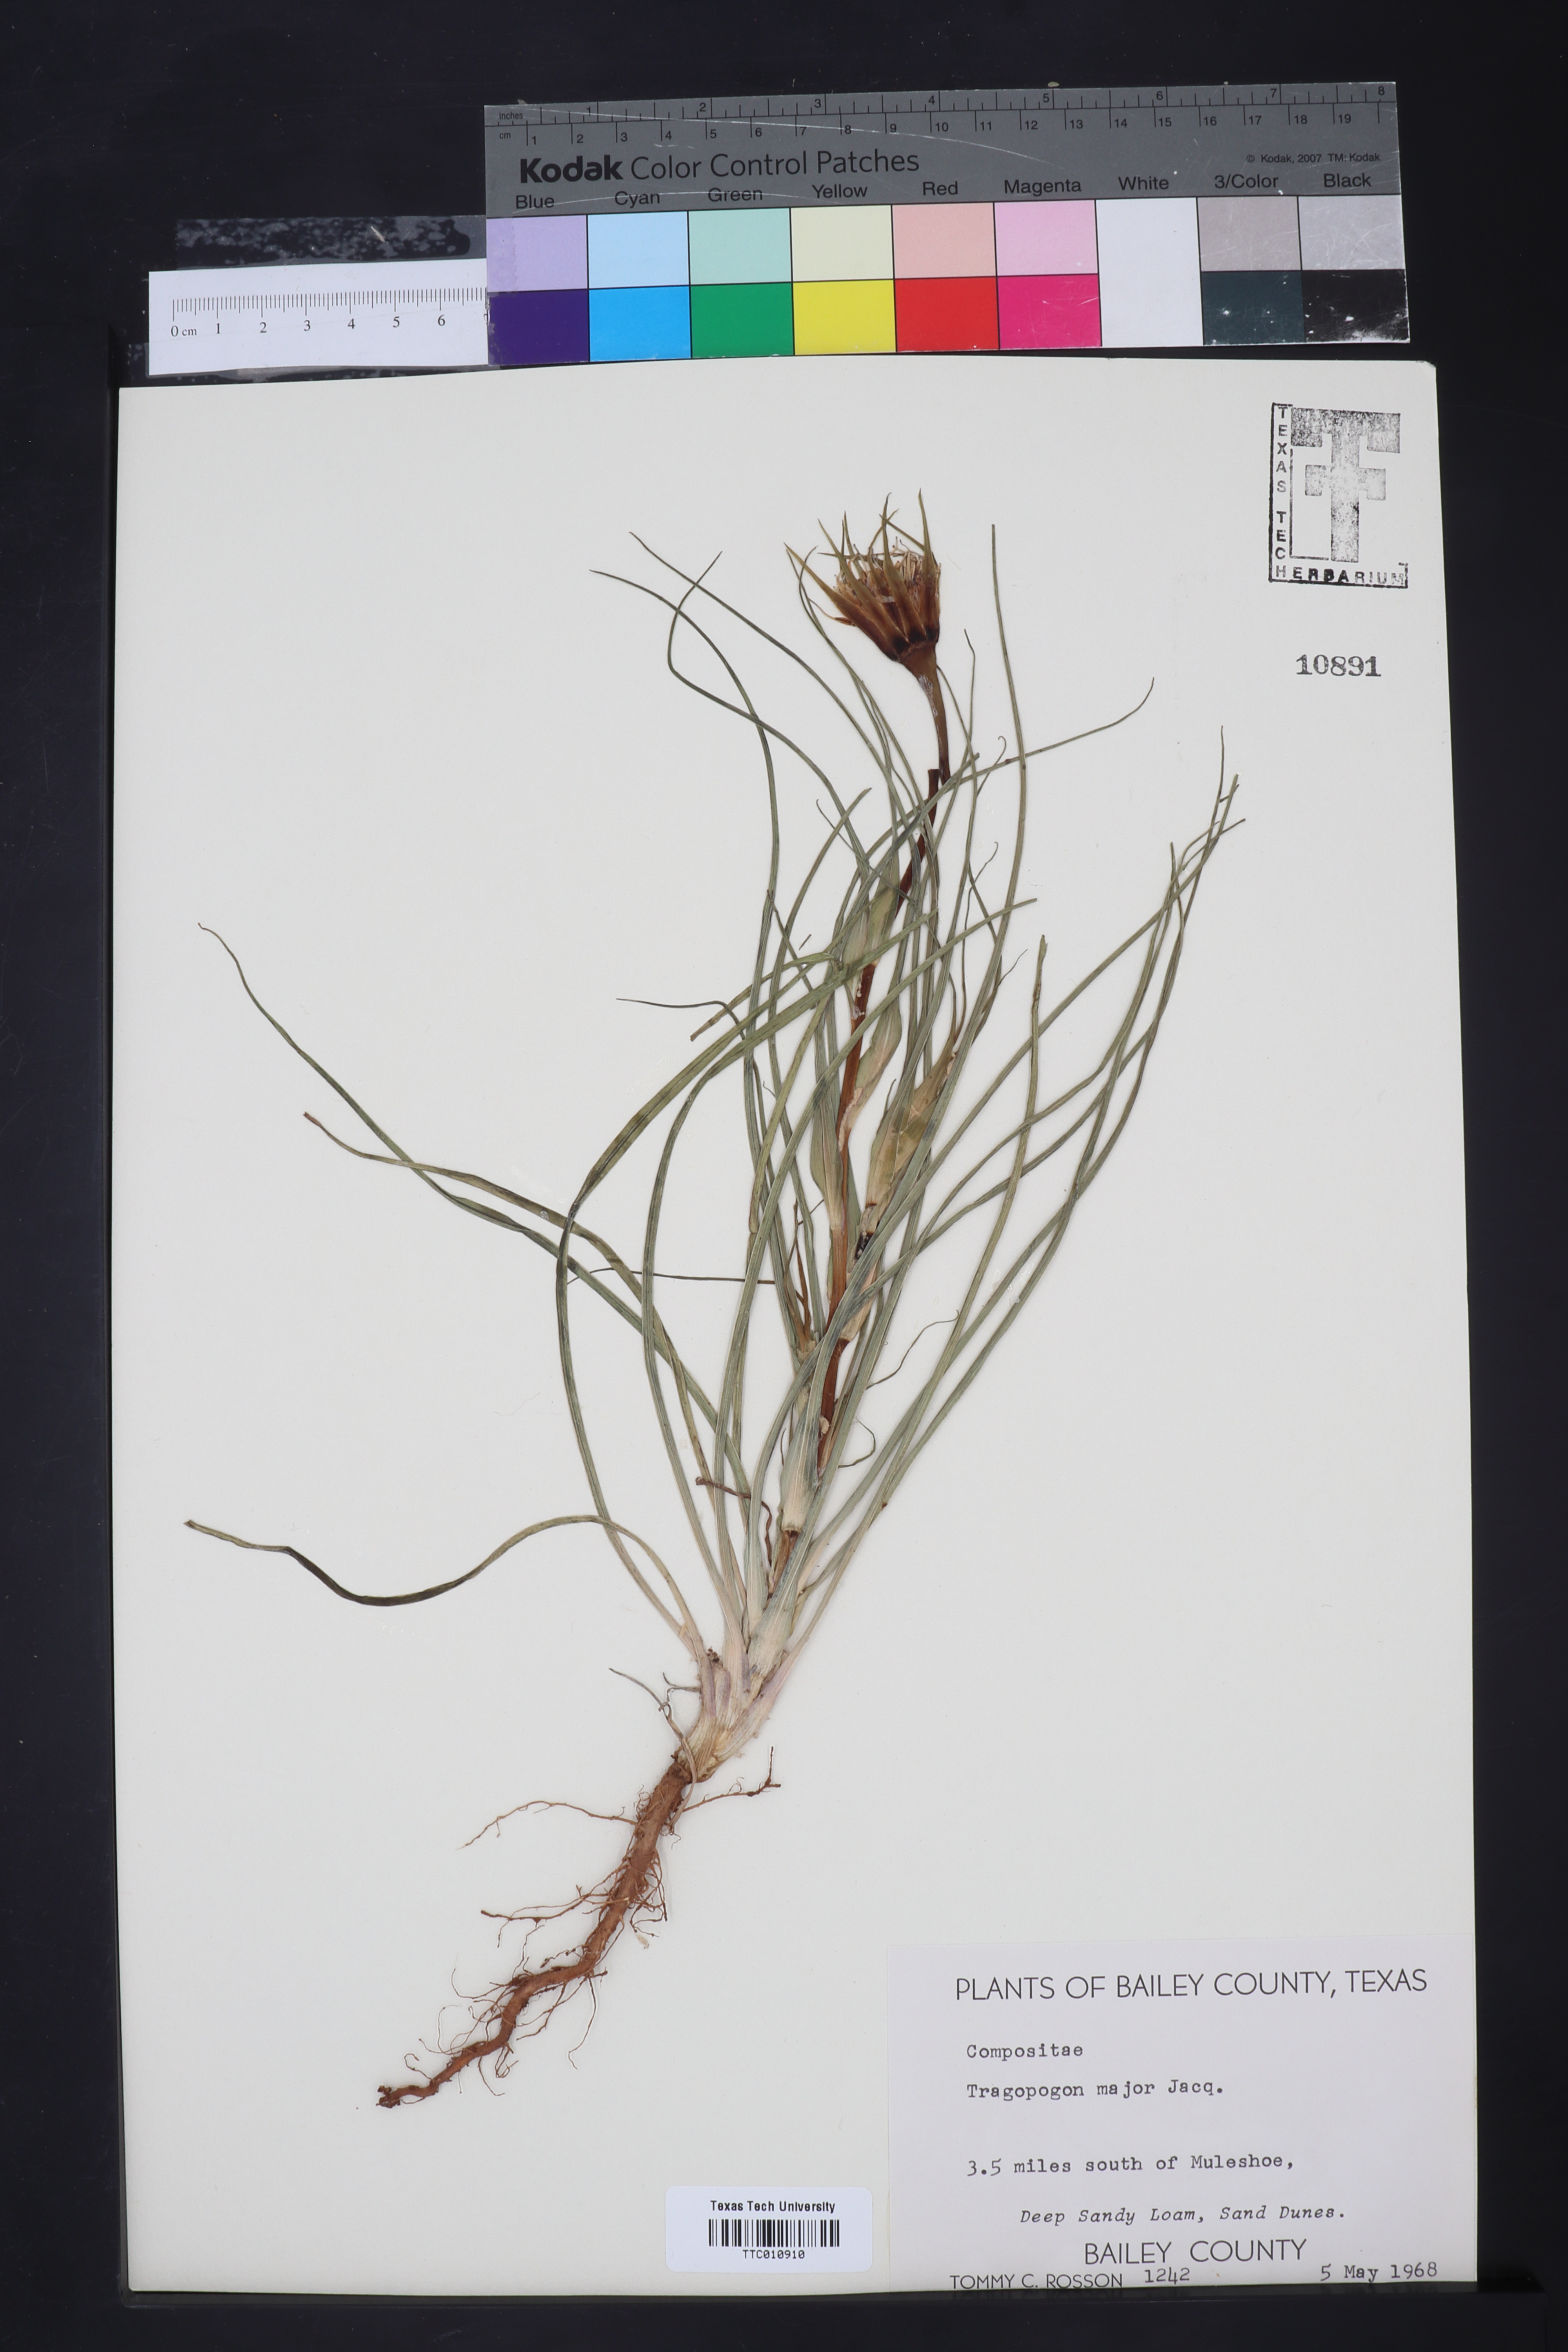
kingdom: Plantae
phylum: Tracheophyta
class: Magnoliopsida
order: Asterales
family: Asteraceae
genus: Tragopogon
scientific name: Tragopogon dubius
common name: Yellow salsify
